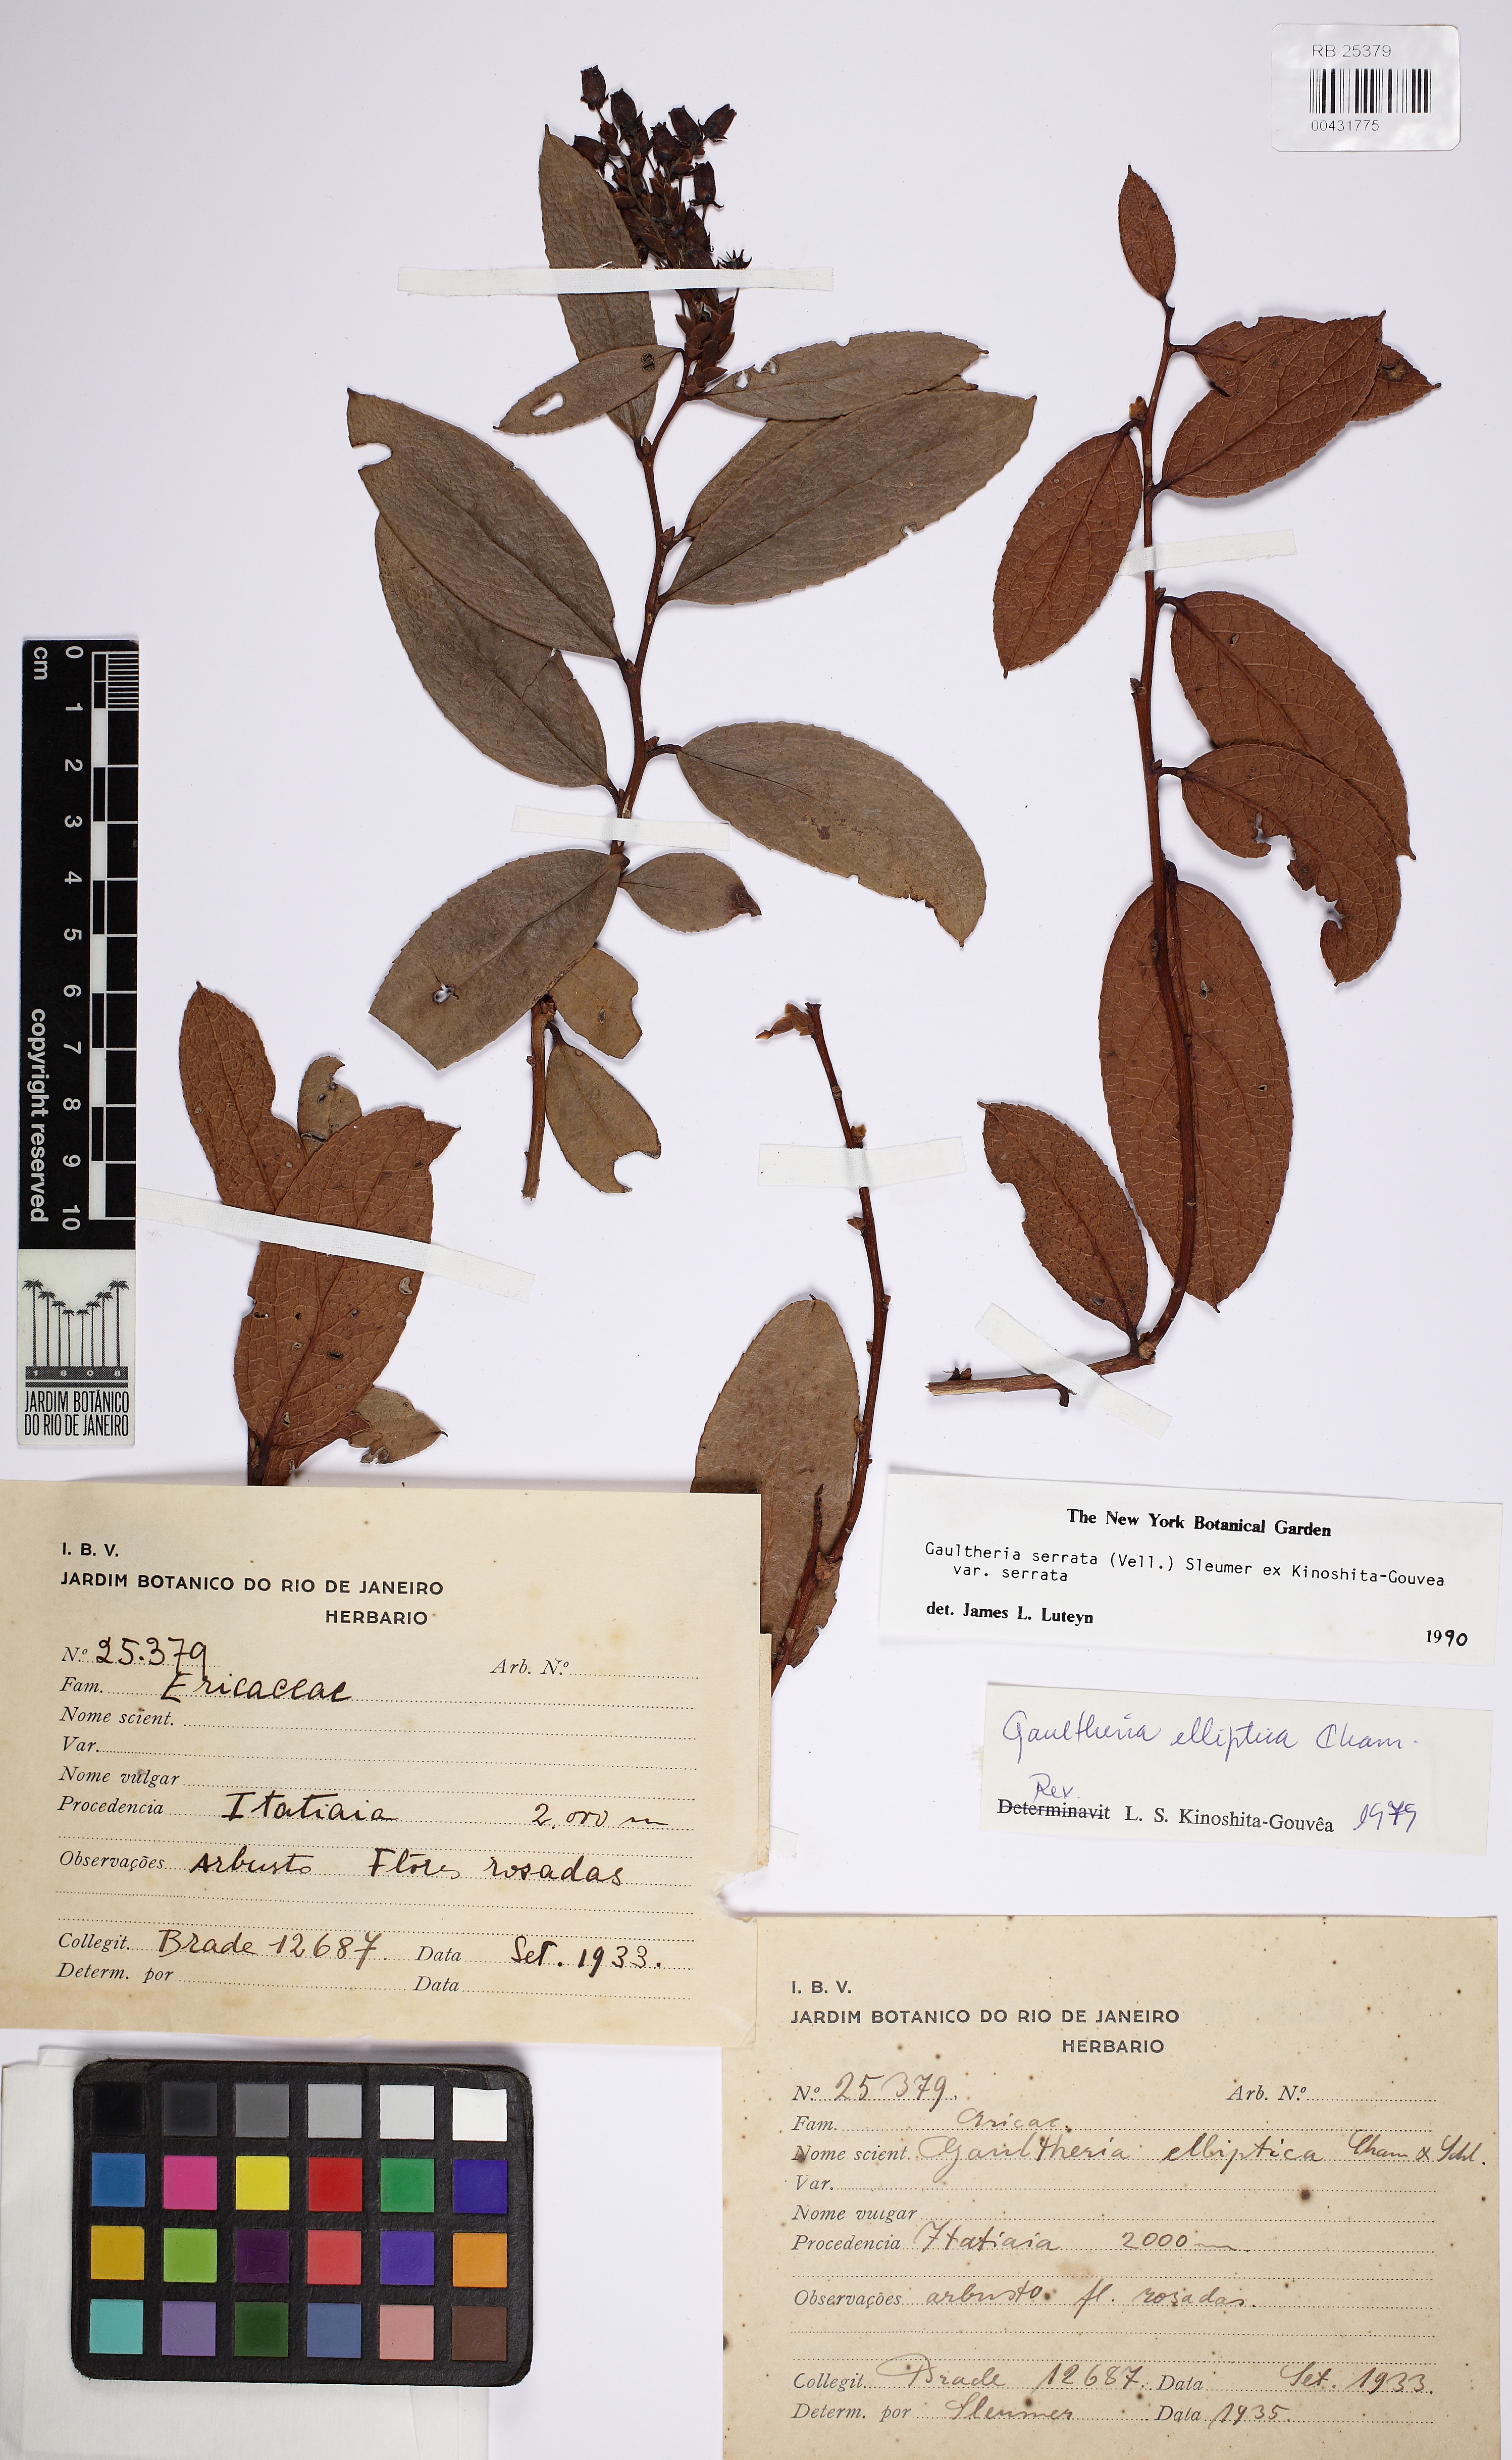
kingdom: Plantae
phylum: Tracheophyta
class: Magnoliopsida
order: Ericales
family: Ericaceae
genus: Gaultheria
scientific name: Gaultheria serrata
